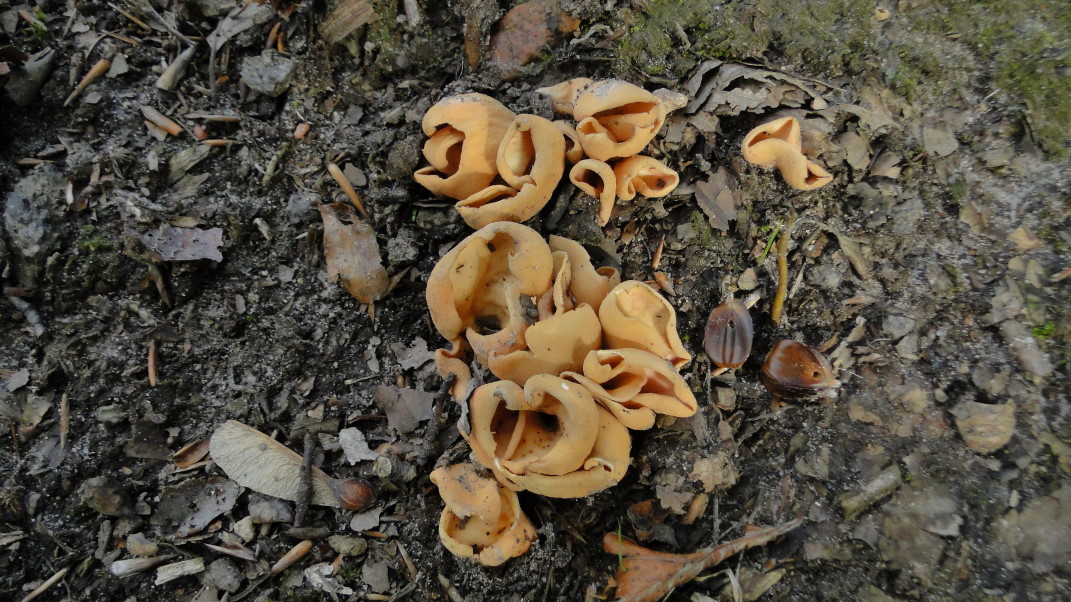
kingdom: Fungi
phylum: Ascomycota
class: Pezizomycetes
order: Pezizales
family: Otideaceae
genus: Otidea
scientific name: Otidea onotica
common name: æsel-ørebæger
